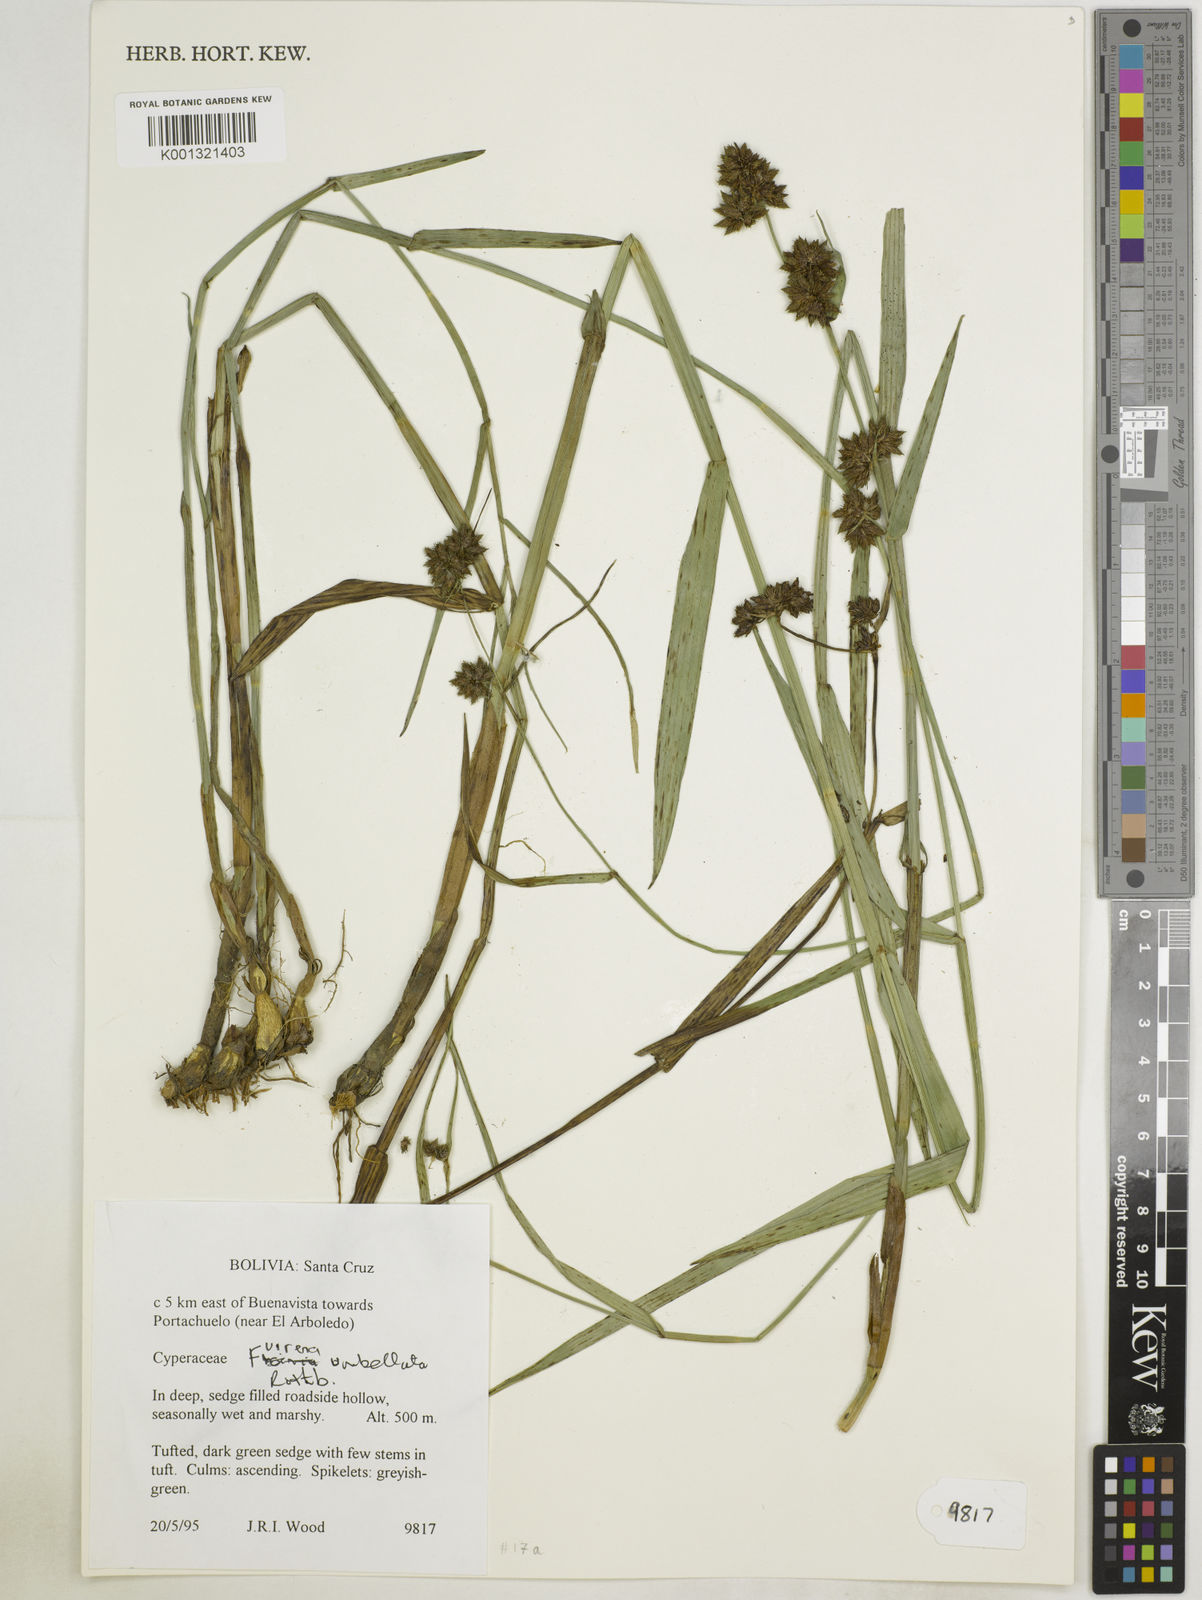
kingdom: Plantae
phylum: Tracheophyta
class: Liliopsida
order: Poales
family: Cyperaceae
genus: Fuirena
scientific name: Fuirena umbellata
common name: Yefen
